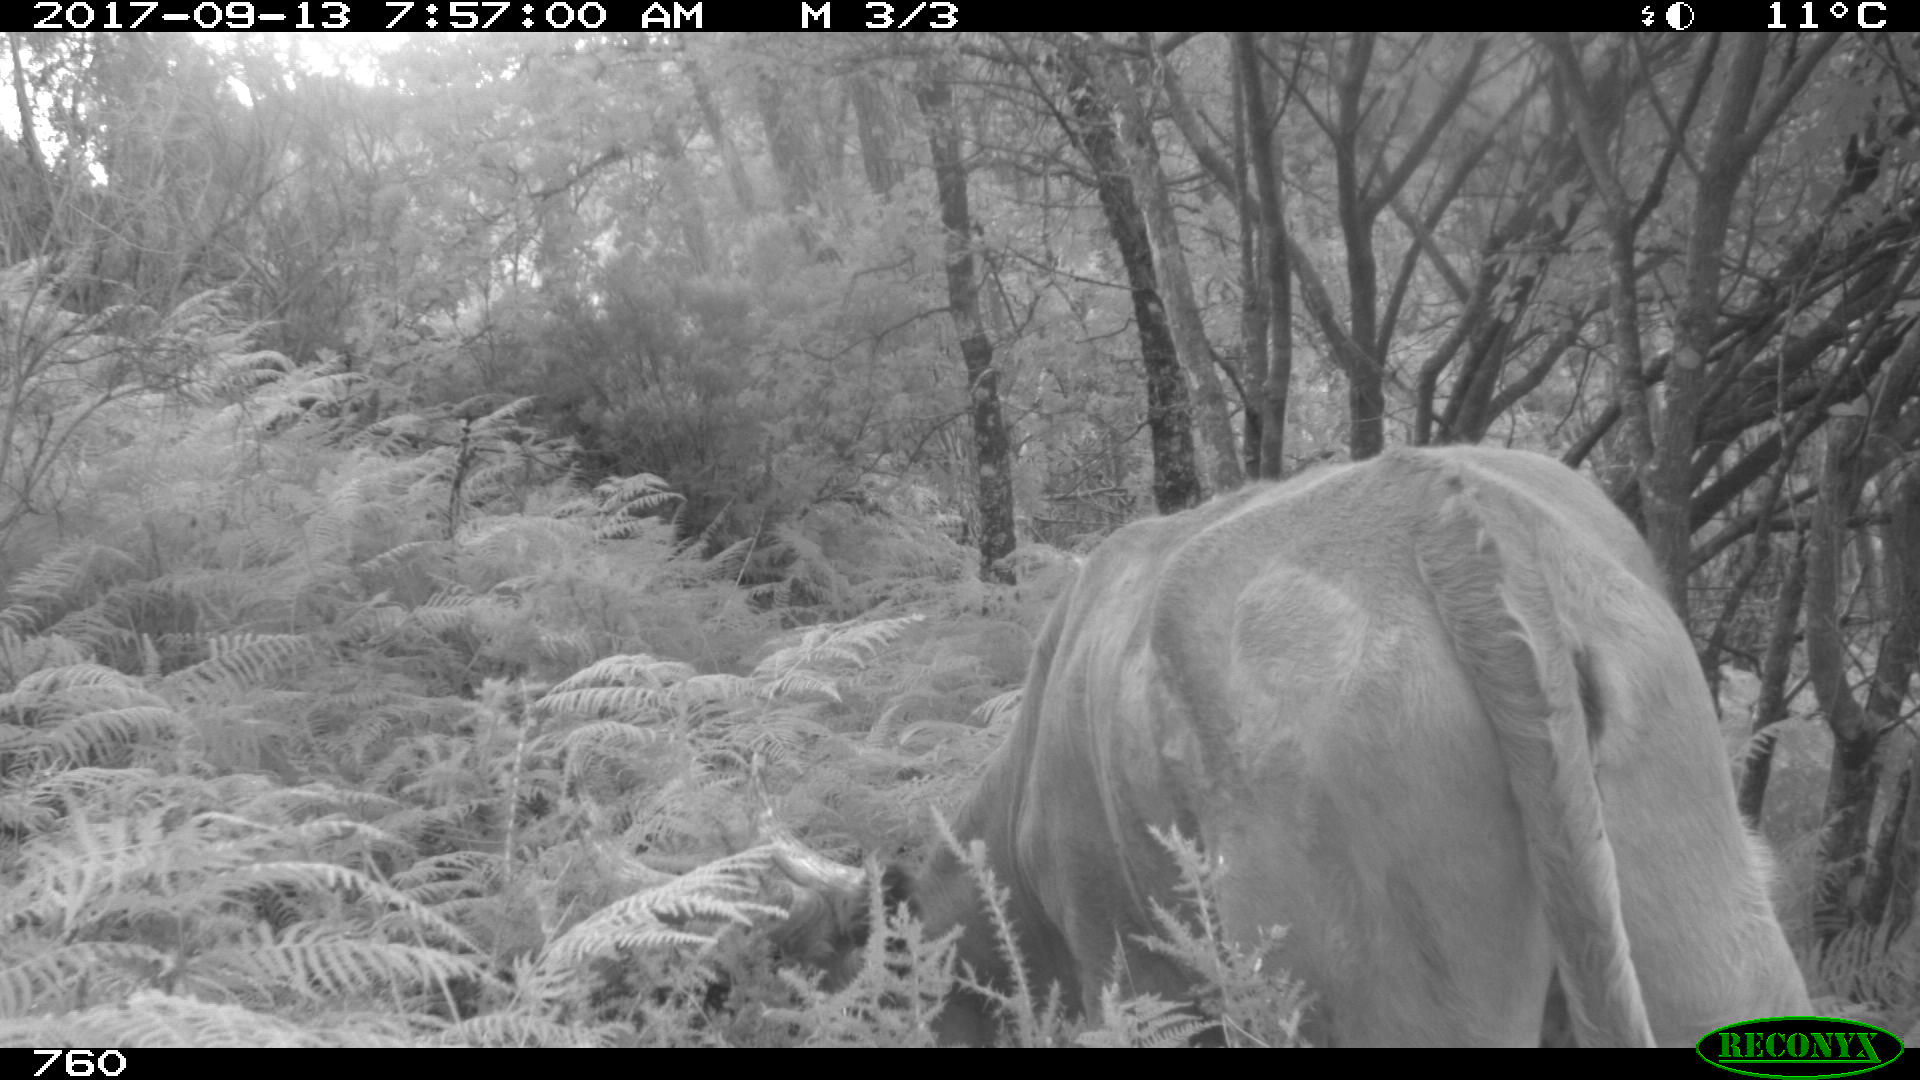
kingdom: Animalia
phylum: Chordata
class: Mammalia
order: Artiodactyla
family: Bovidae
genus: Bos
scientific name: Bos taurus
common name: Domesticated cattle
